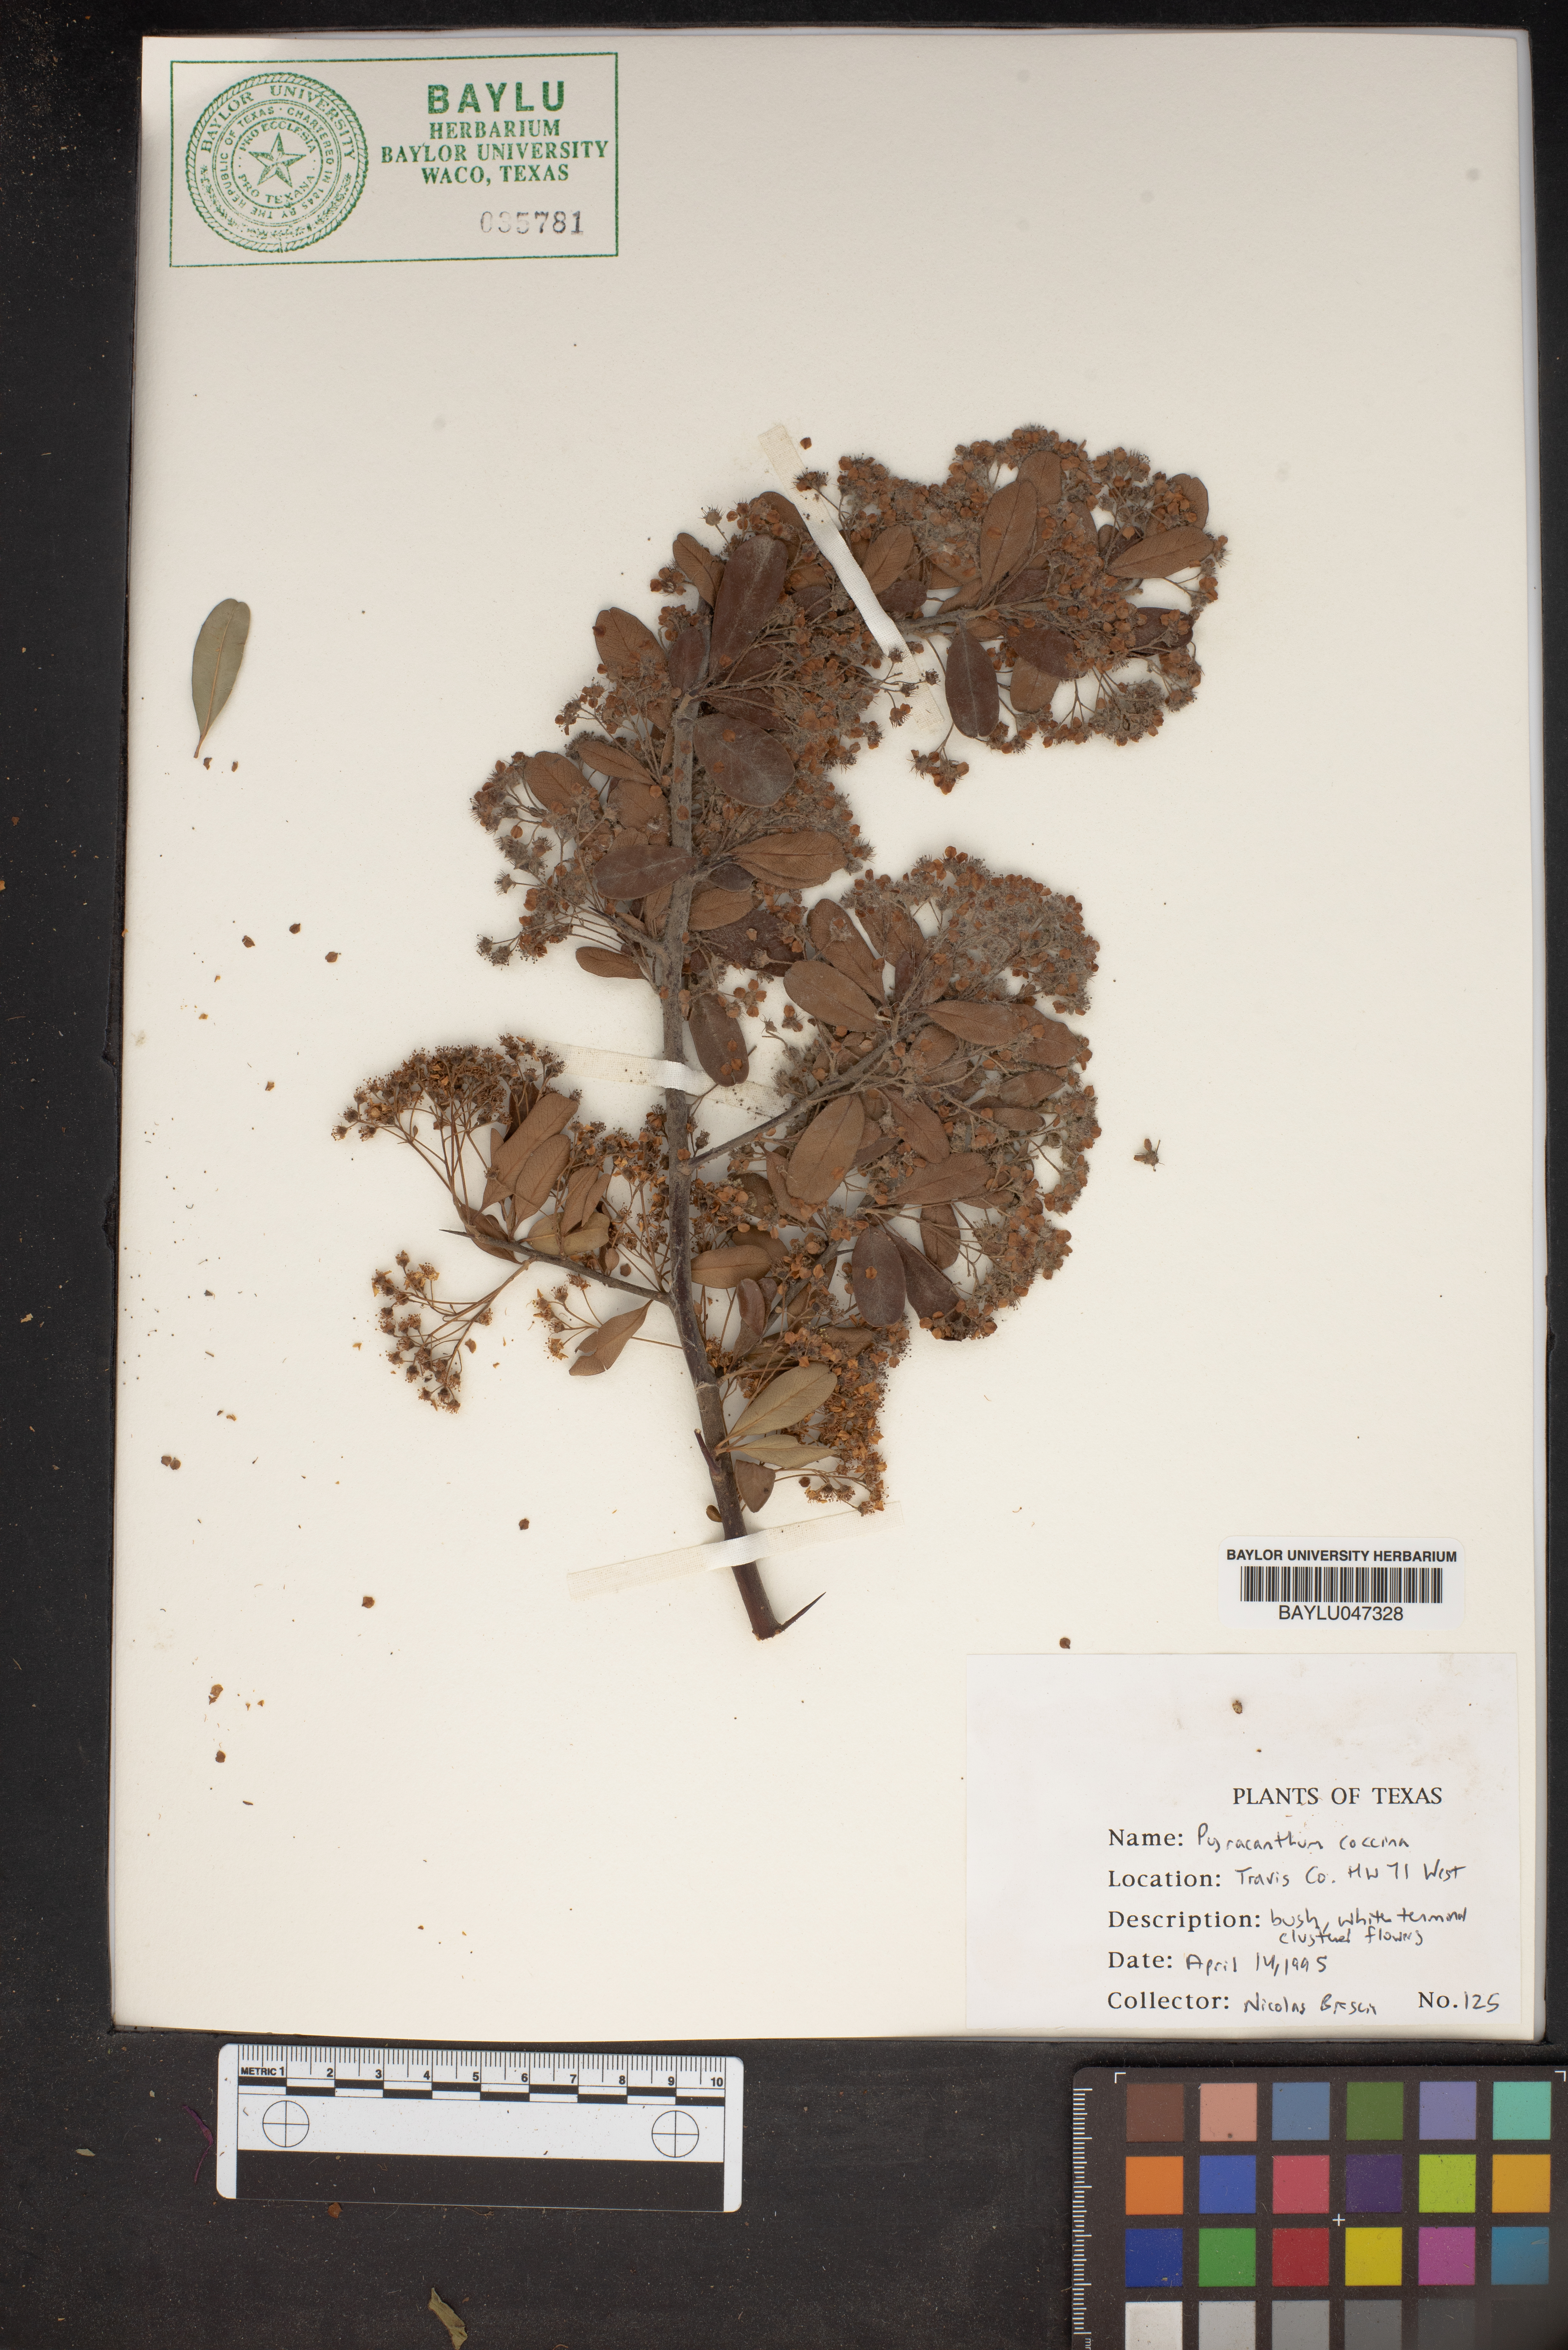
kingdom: Plantae
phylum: Tracheophyta
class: Magnoliopsida
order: Rosales
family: Rosaceae
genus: Pyracantha
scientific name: Pyracantha coccinea
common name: Firethorn
